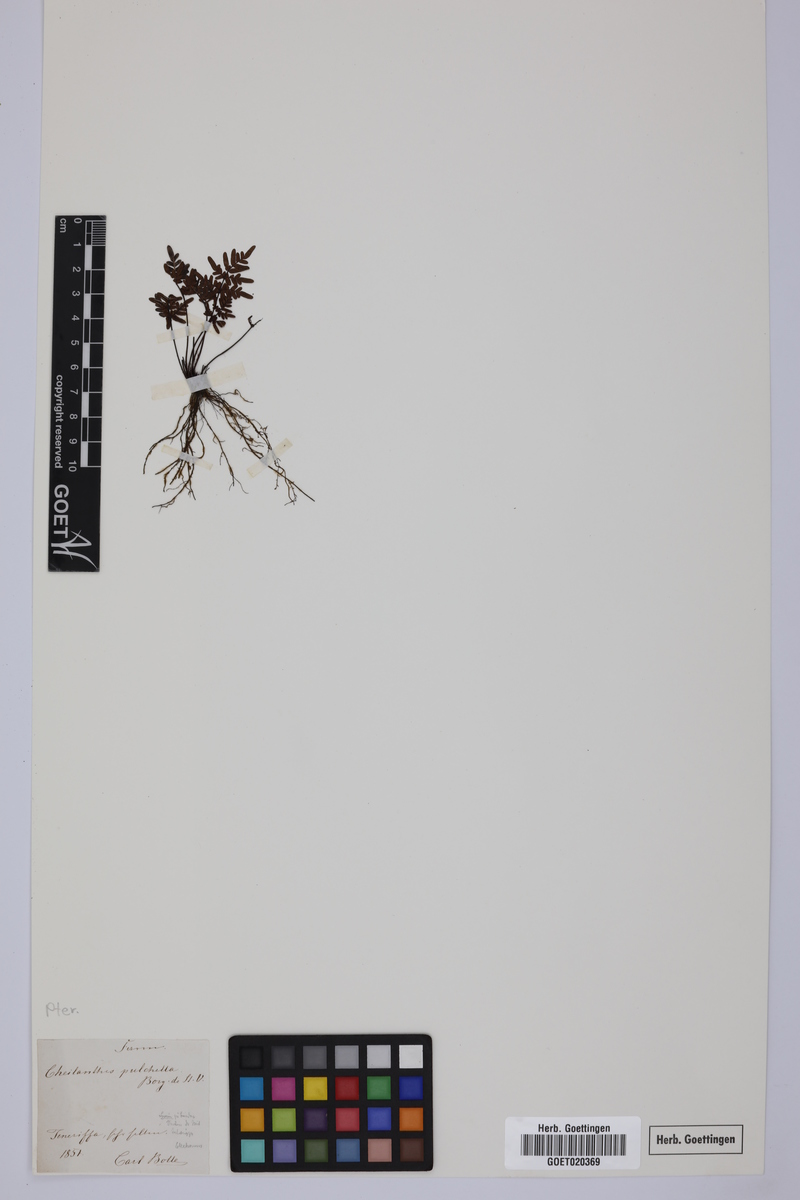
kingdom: Plantae
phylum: Tracheophyta
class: Polypodiopsida
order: Polypodiales
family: Pteridaceae
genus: Oeosporangium
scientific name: Oeosporangium pulchellum
